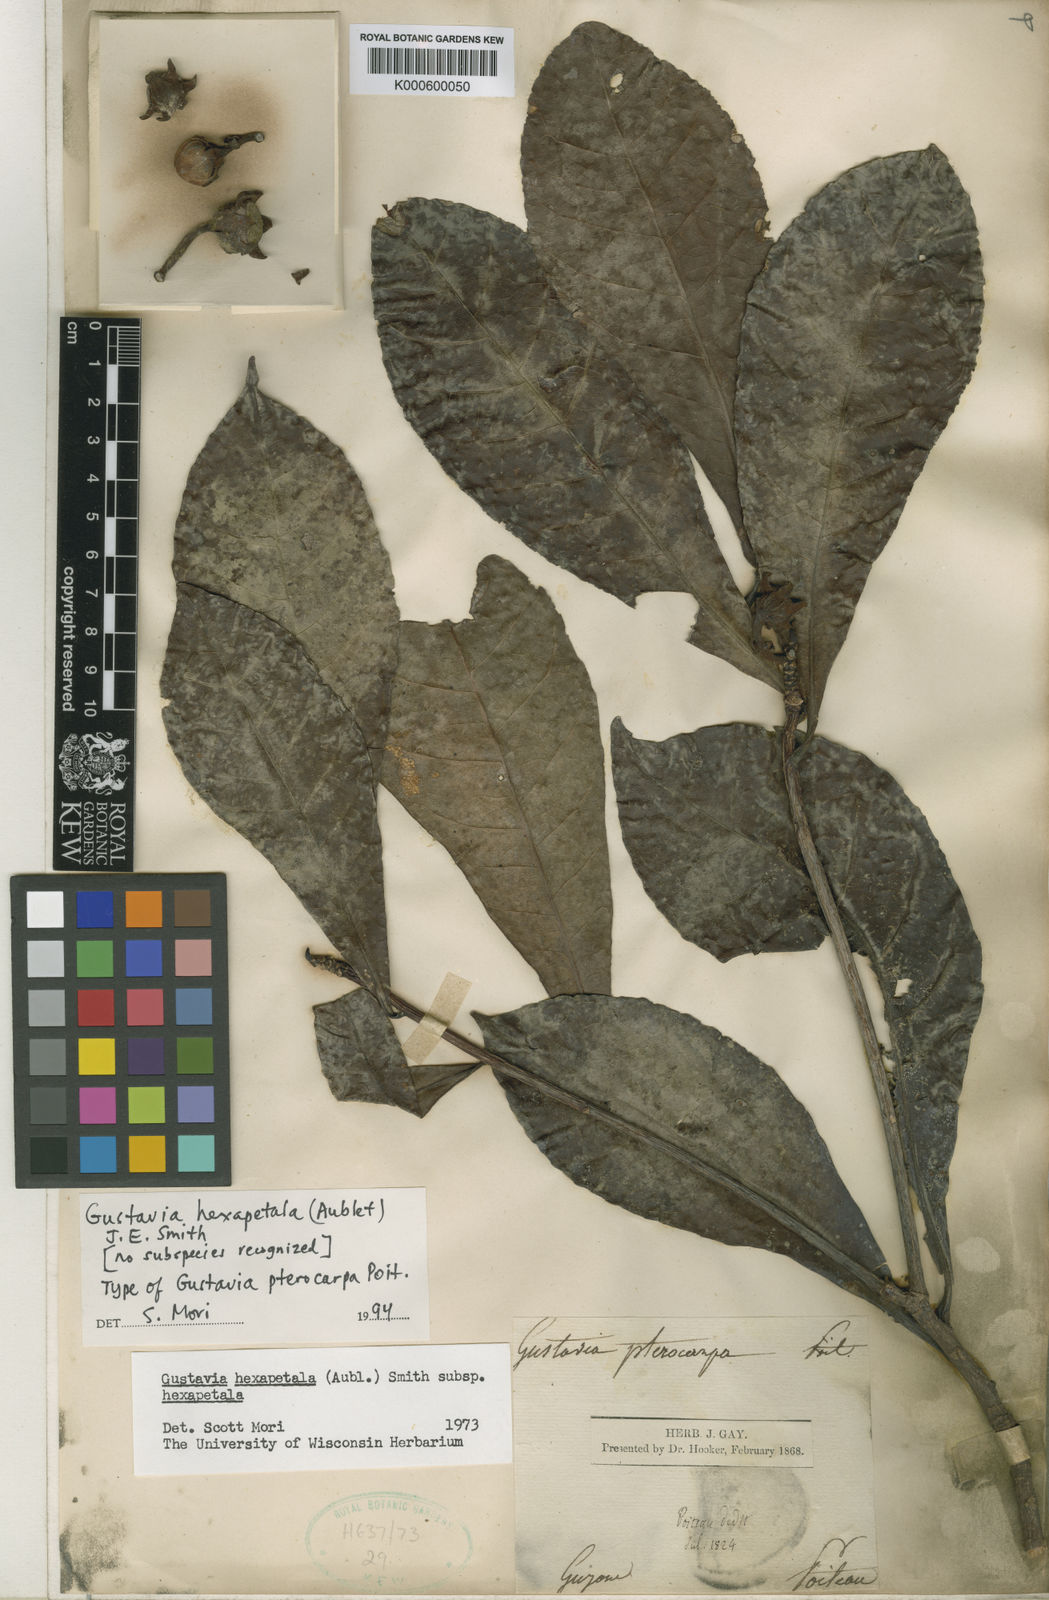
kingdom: Plantae
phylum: Tracheophyta
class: Magnoliopsida
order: Ericales
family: Lecythidaceae
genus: Gustavia
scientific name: Gustavia hexapetala
